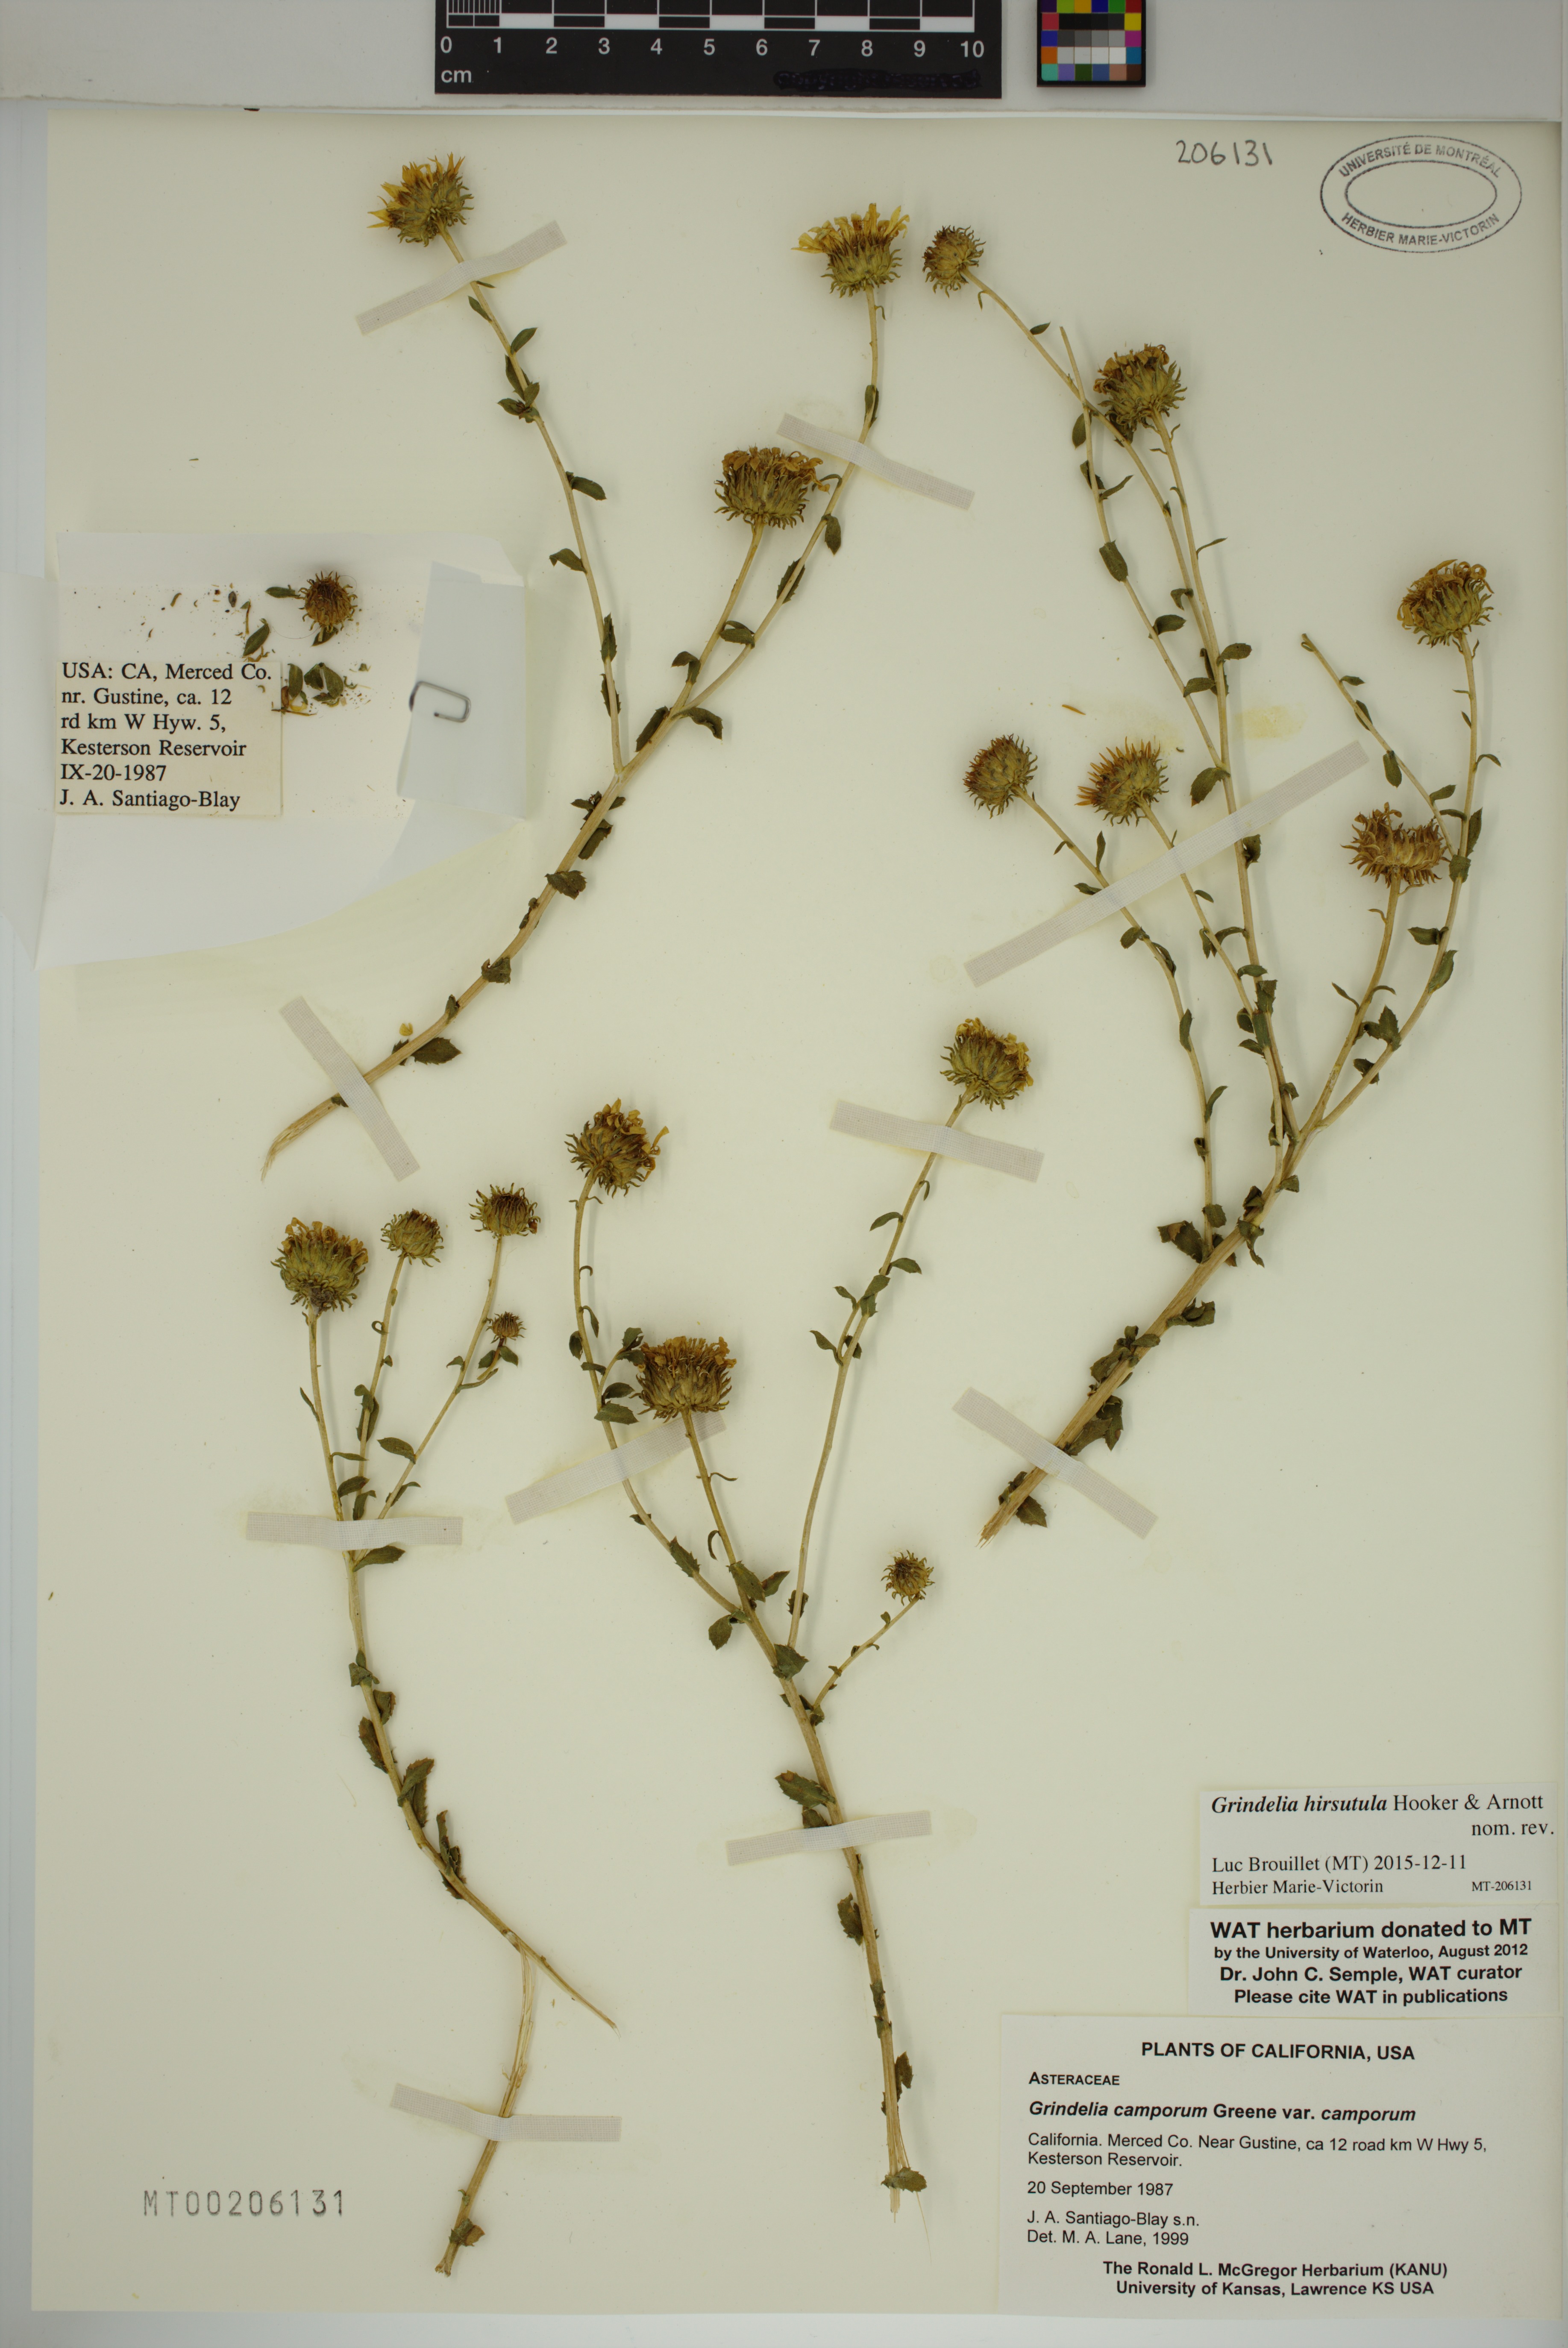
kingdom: Plantae
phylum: Tracheophyta
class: Magnoliopsida
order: Asterales
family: Asteraceae
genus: Grindelia
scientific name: Grindelia hirsutula
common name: Hairy gumweed
